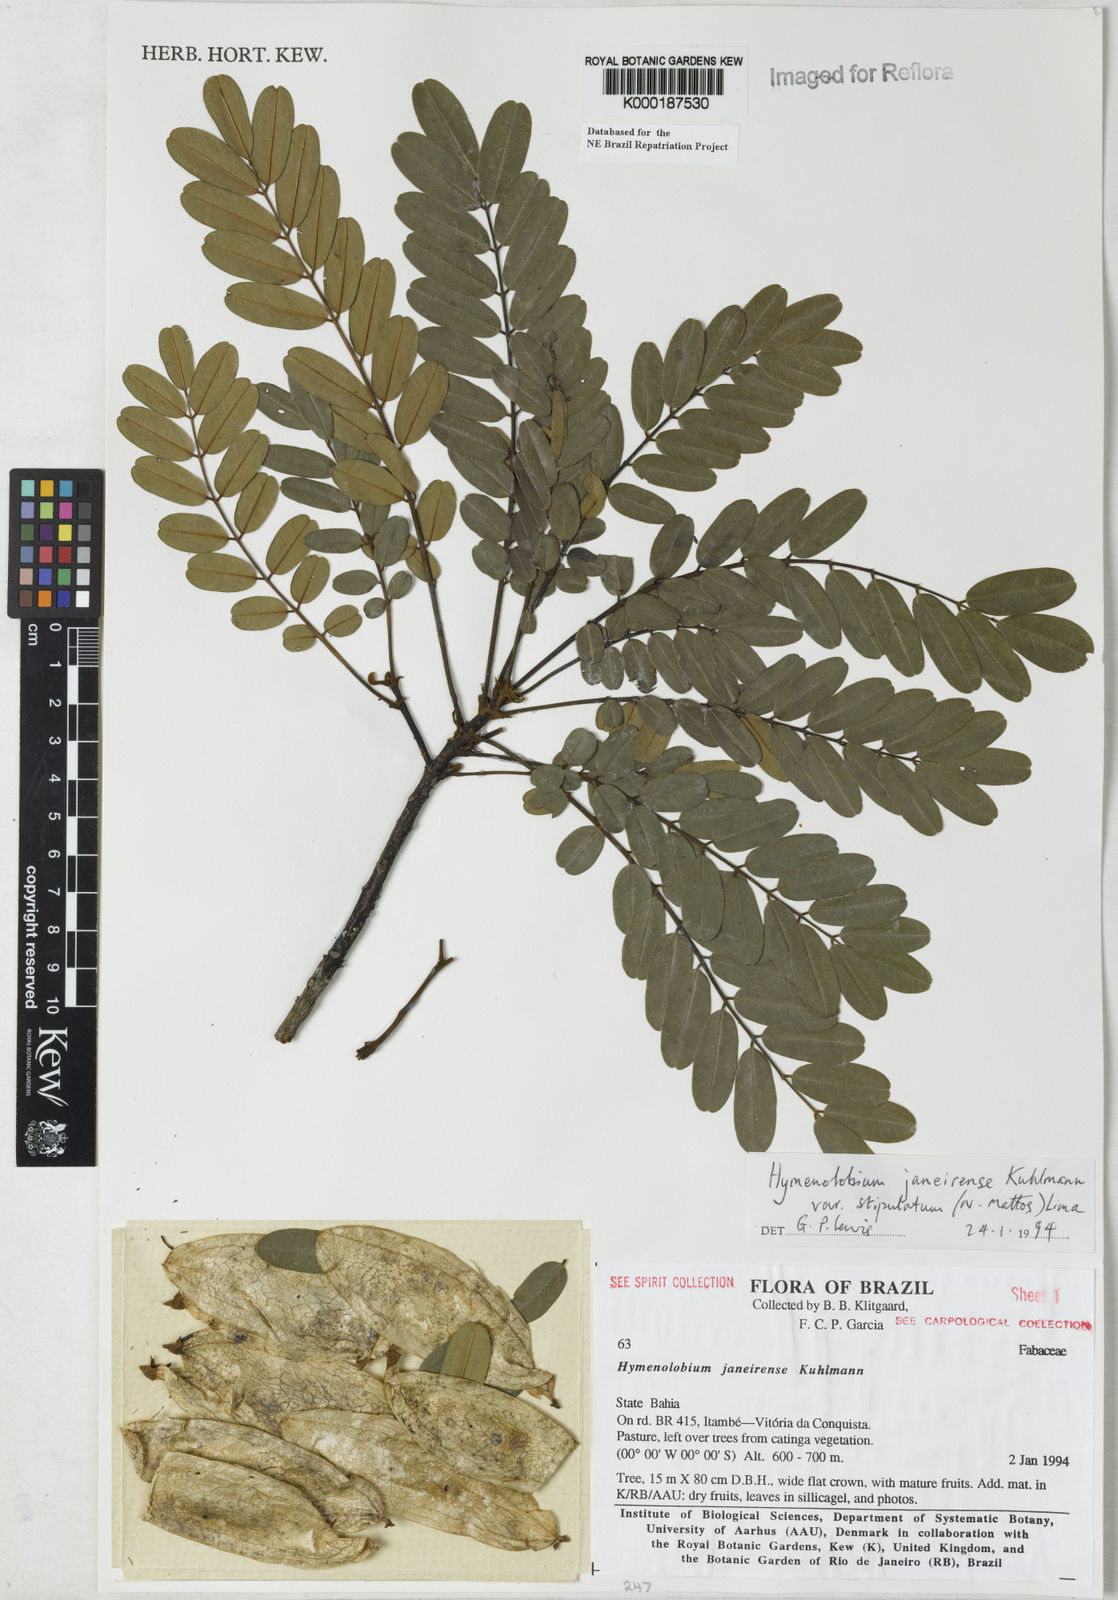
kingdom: Plantae
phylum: Tracheophyta
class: Magnoliopsida
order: Fabales
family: Fabaceae
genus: Hymenolobium
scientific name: Hymenolobium janeirense
